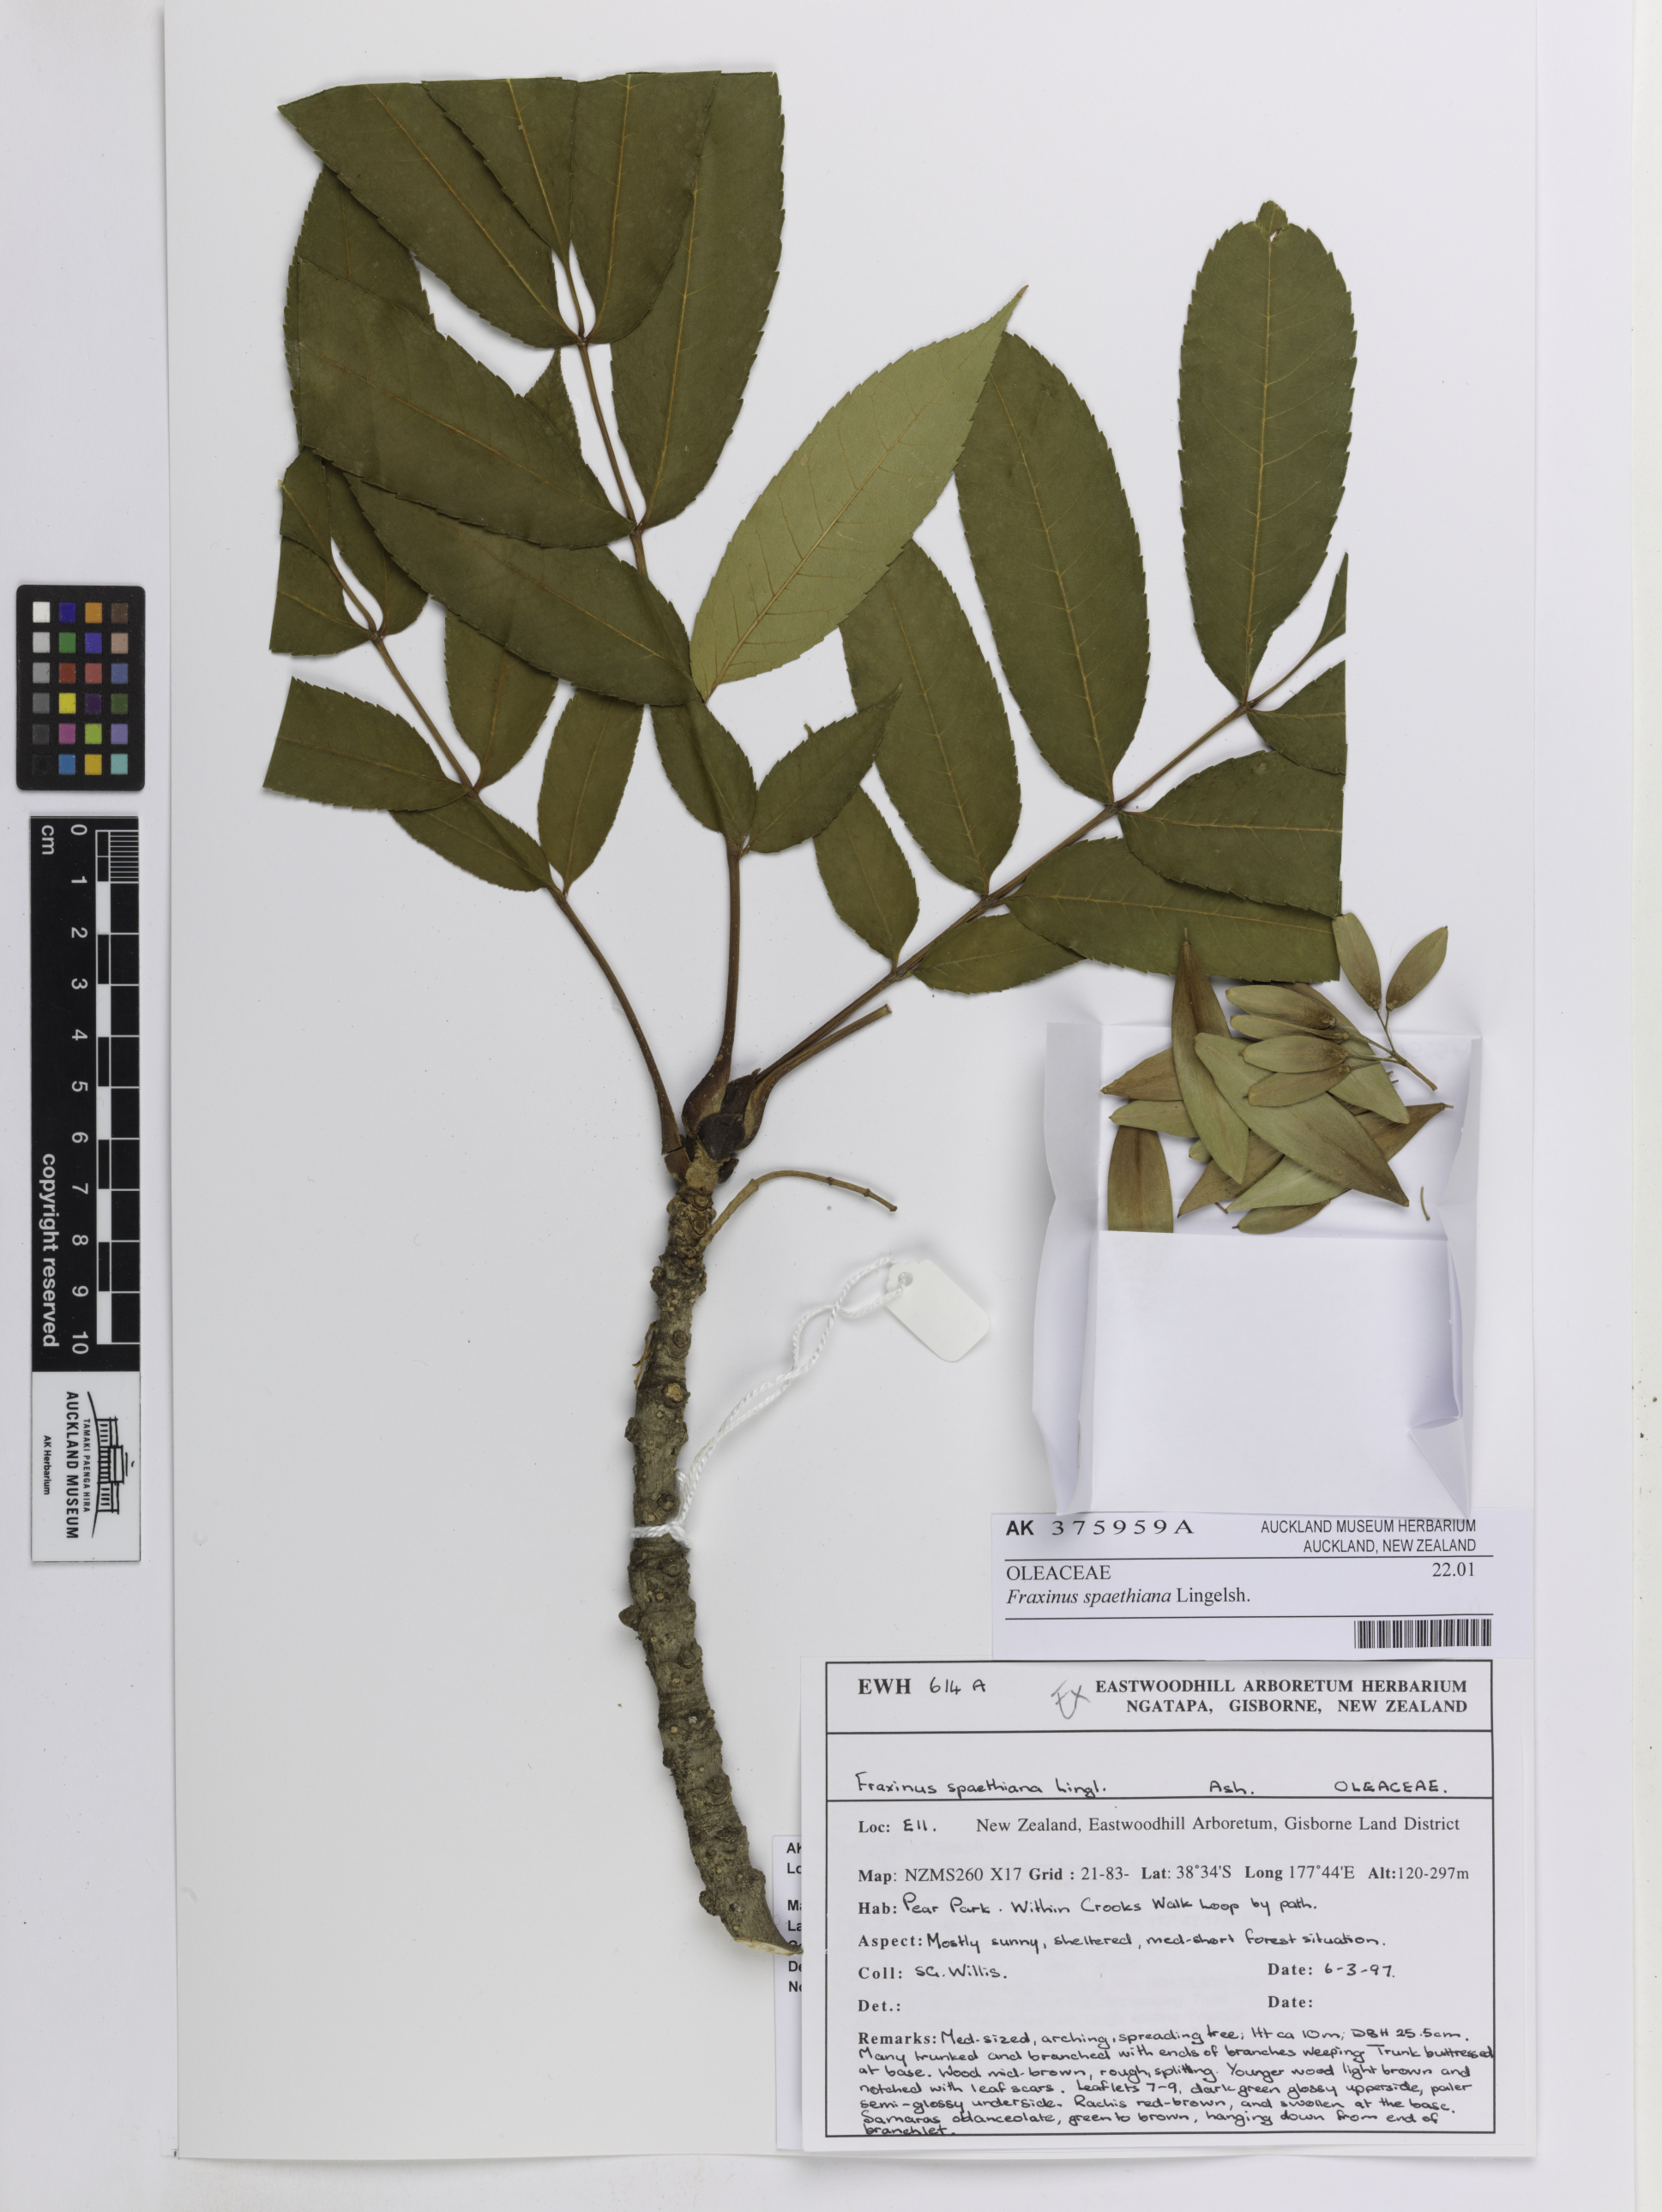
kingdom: Plantae
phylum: Tracheophyta
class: Magnoliopsida
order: Lamiales
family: Oleaceae
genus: Fraxinus
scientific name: Fraxinus platypoda
